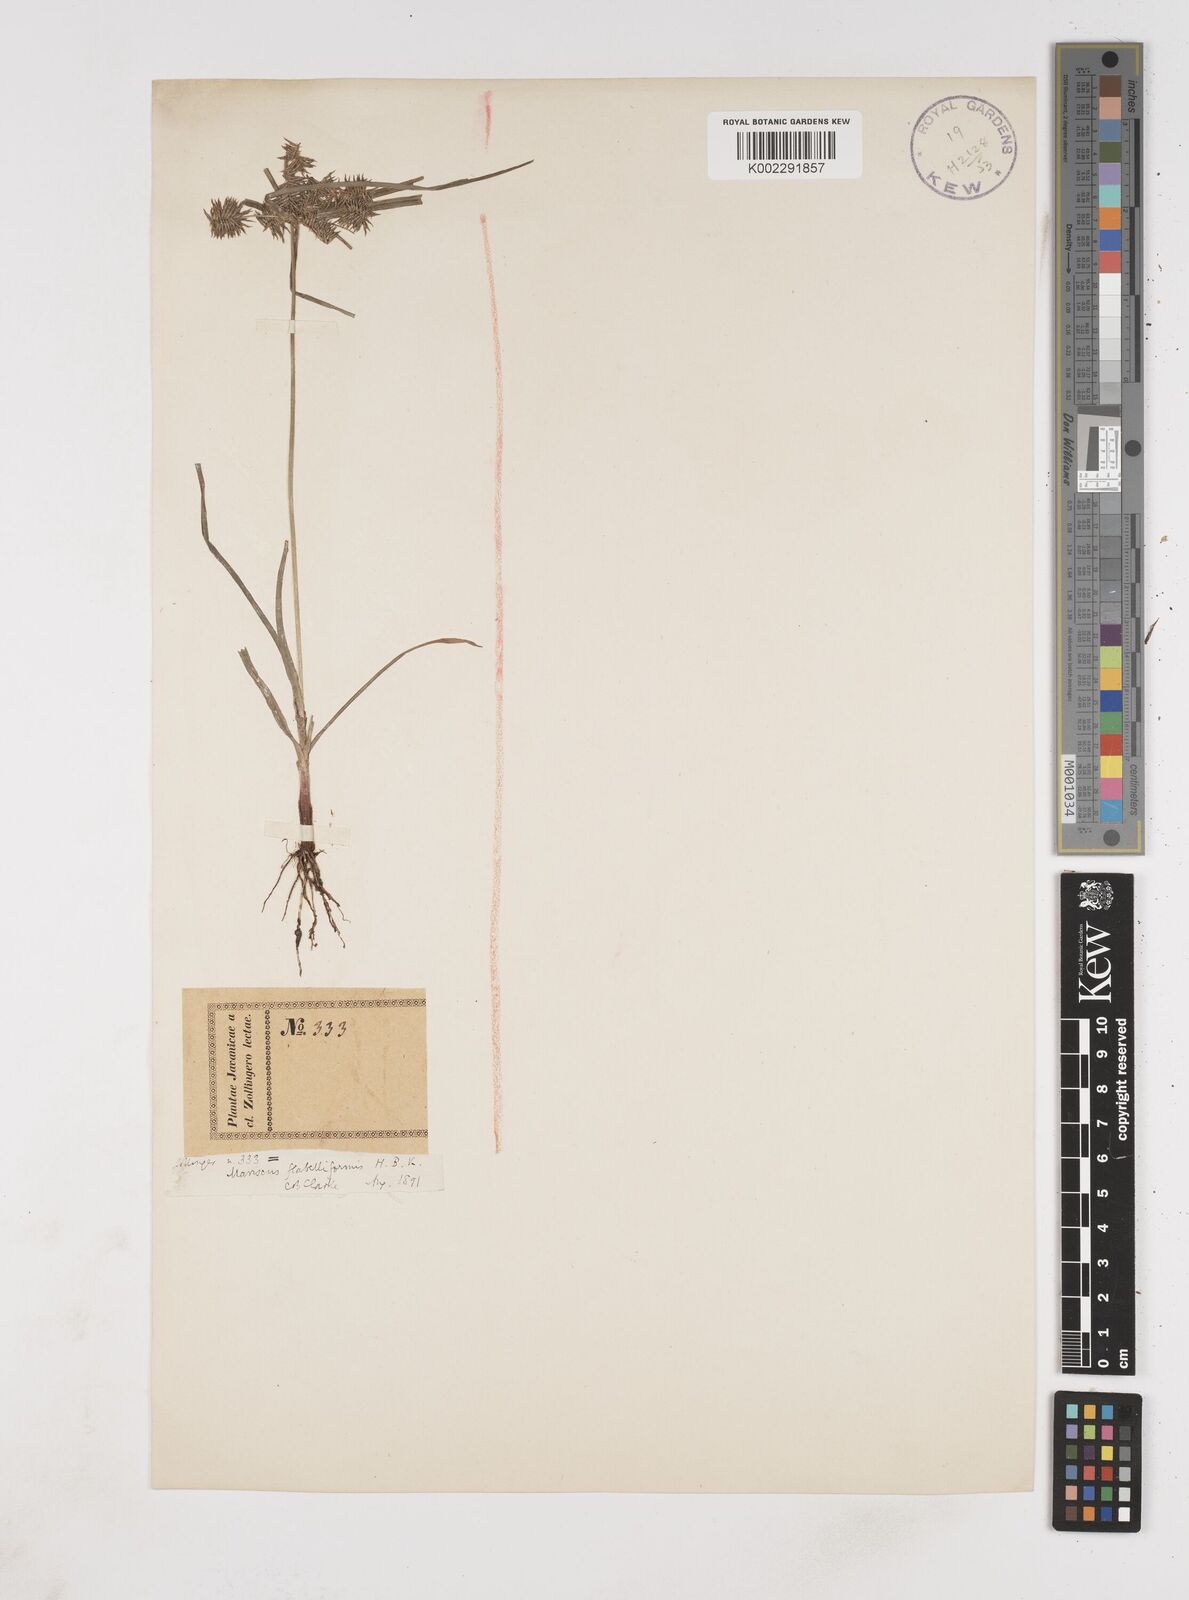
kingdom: Plantae
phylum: Tracheophyta
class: Liliopsida
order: Poales
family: Cyperaceae
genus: Cyperus
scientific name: Cyperus tenuis
